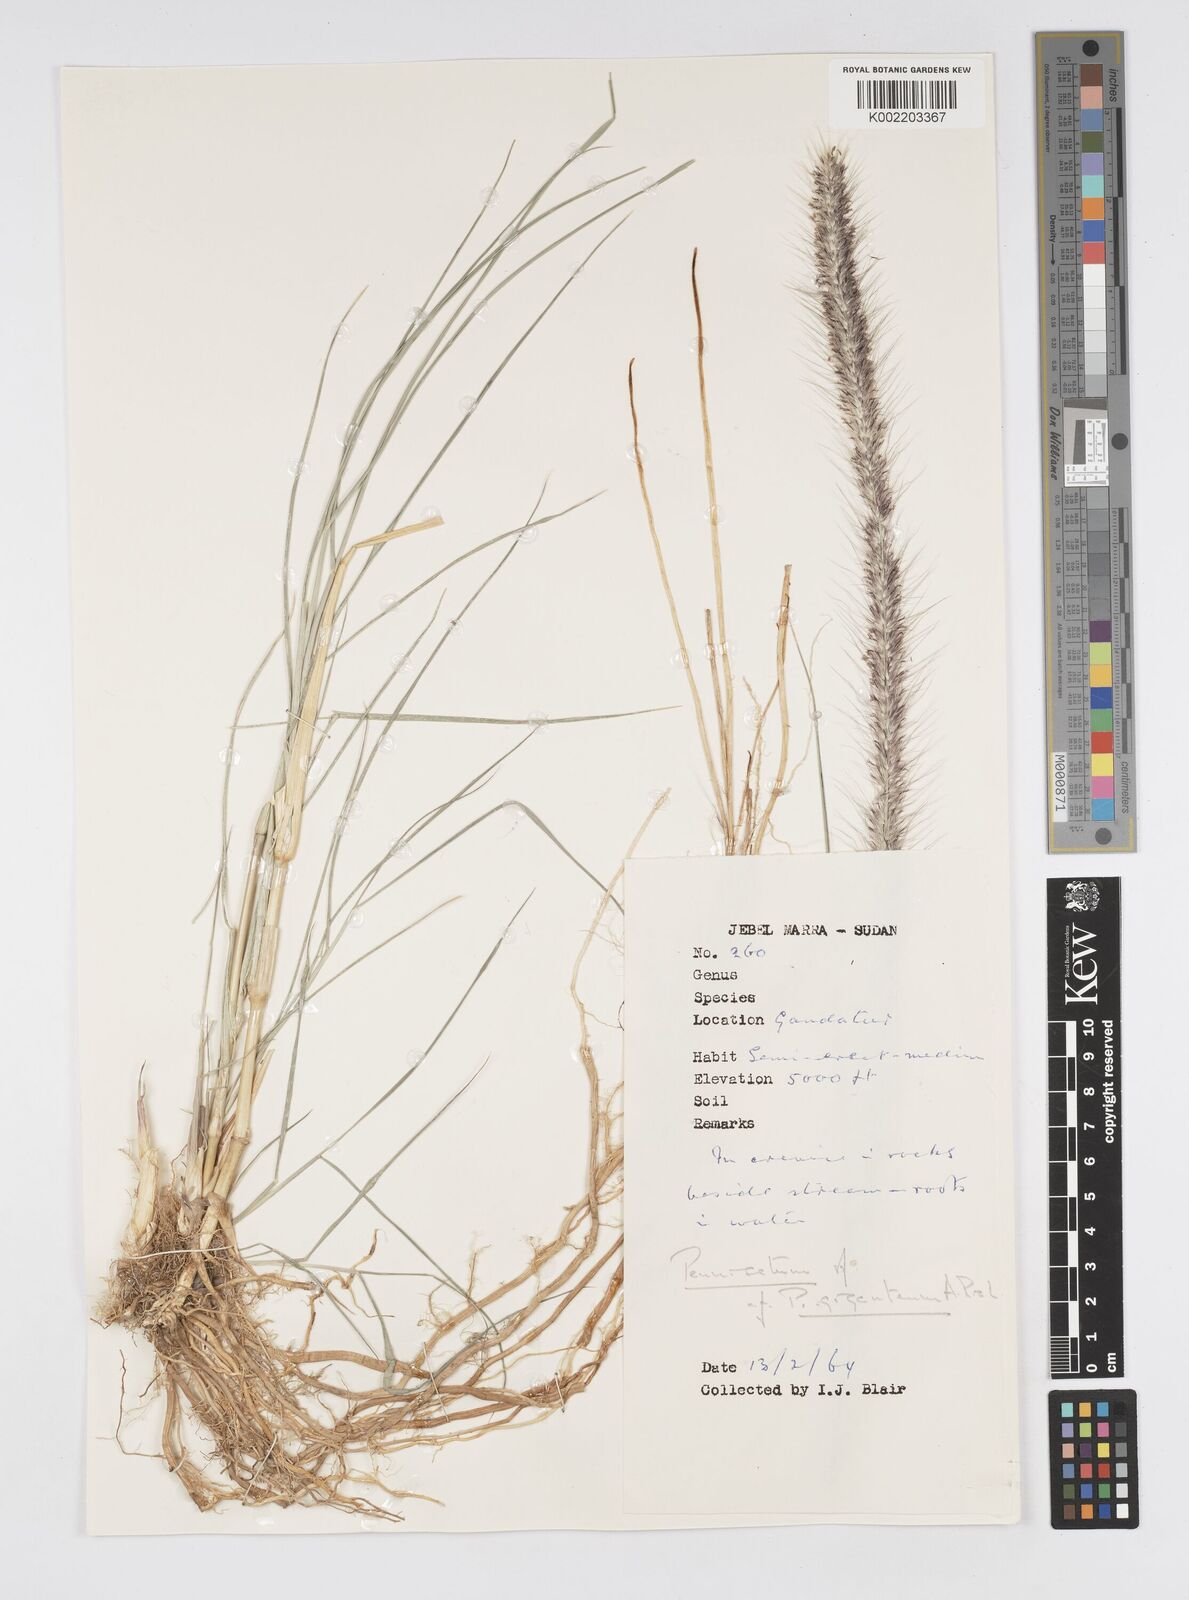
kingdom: Plantae
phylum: Tracheophyta
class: Liliopsida
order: Poales
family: Poaceae
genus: Cenchrus
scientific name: Cenchrus caudatus
